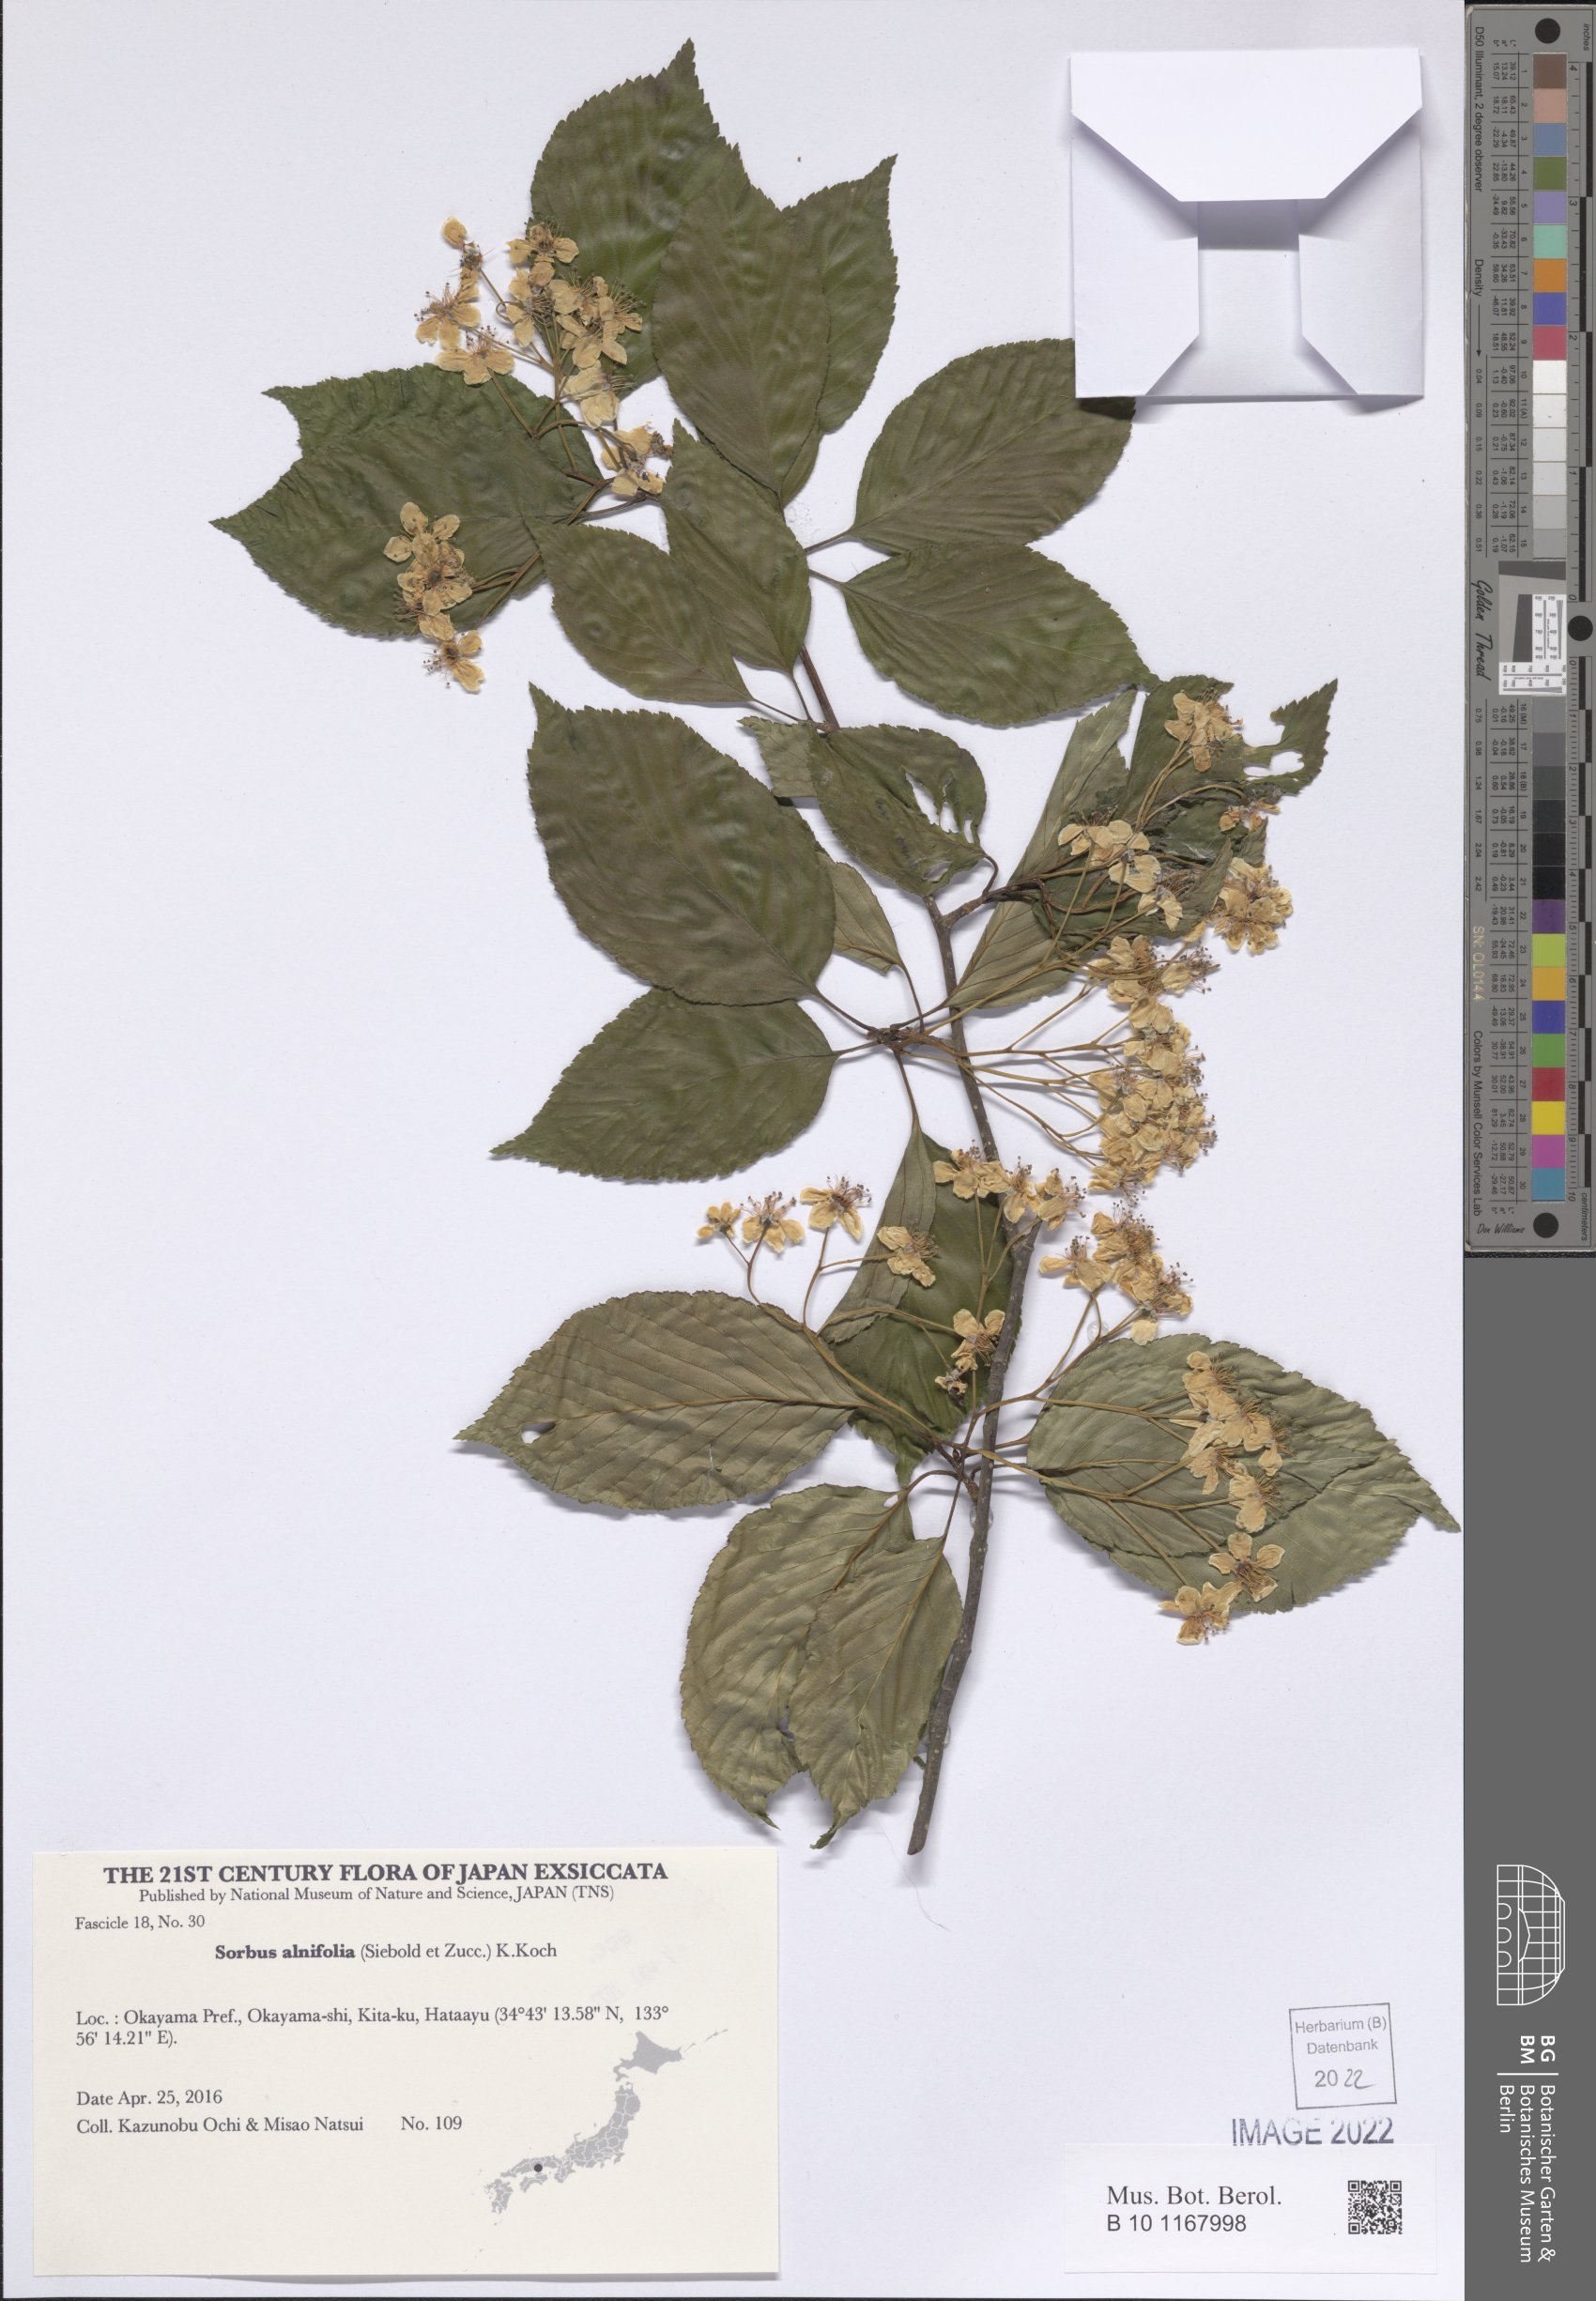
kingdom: Plantae
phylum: Tracheophyta
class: Magnoliopsida
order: Rosales
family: Rosaceae
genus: Sorbus
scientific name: Sorbus alnifolia
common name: Mountain-ash
